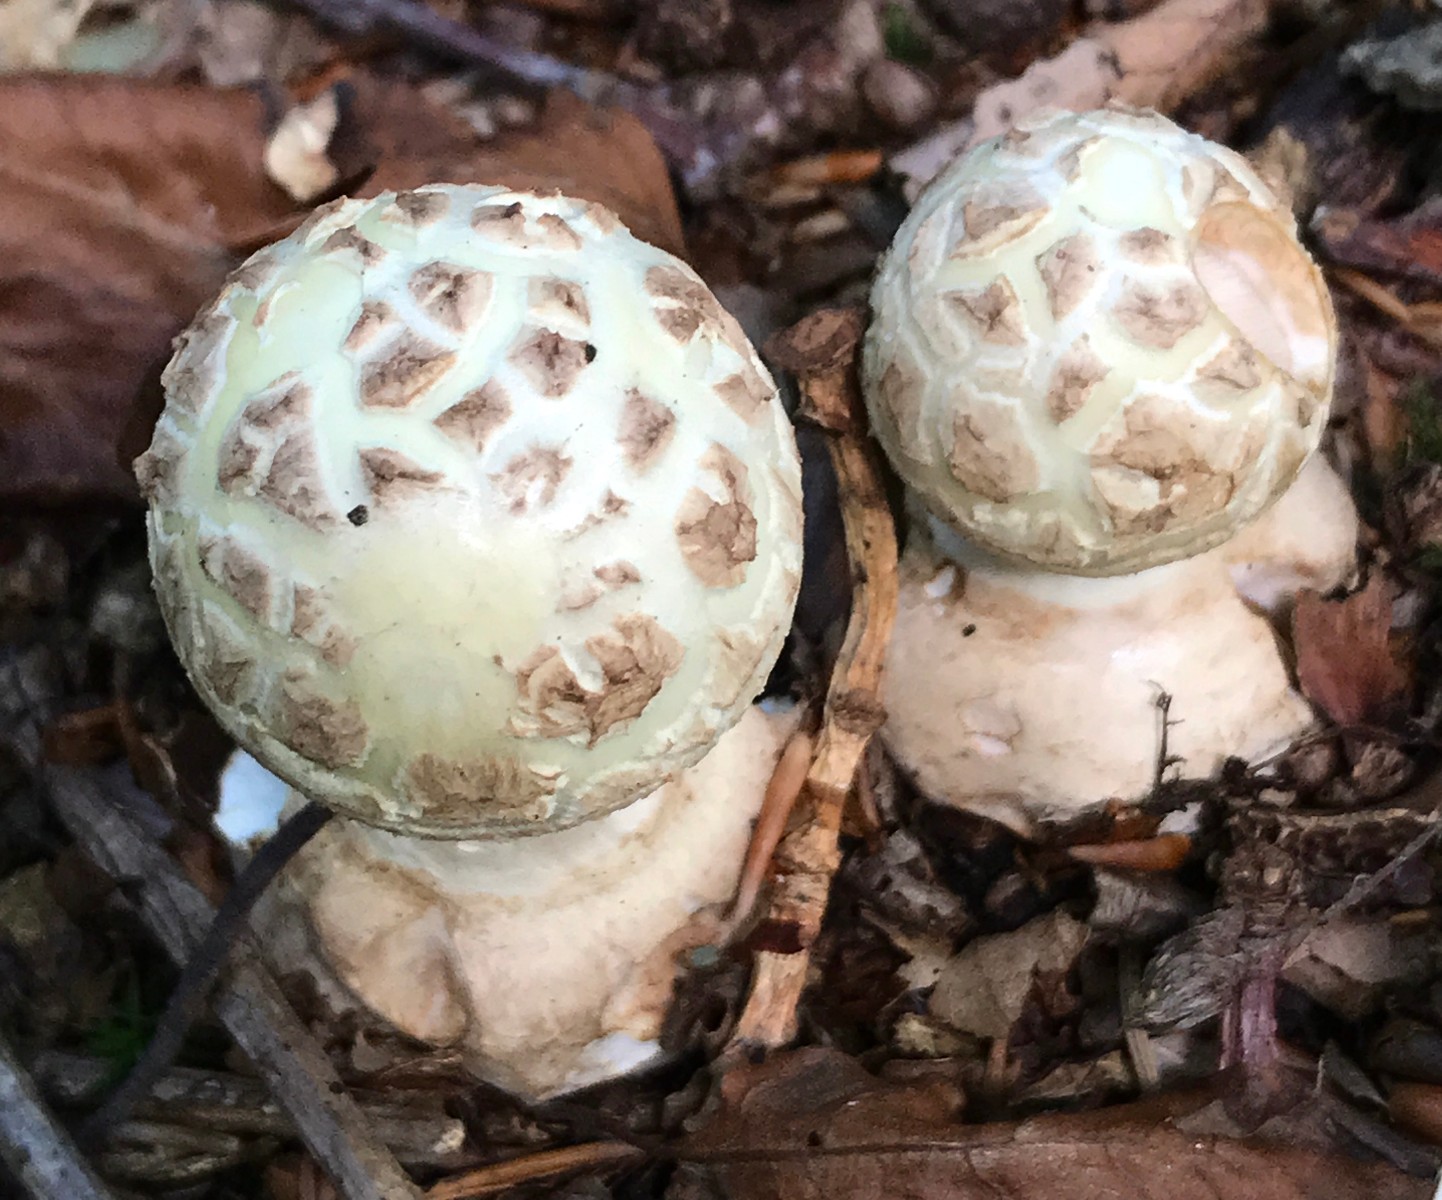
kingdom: Fungi
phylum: Basidiomycota
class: Agaricomycetes
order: Agaricales
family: Amanitaceae
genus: Amanita
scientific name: Amanita citrina
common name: kugleknoldet fluesvamp
